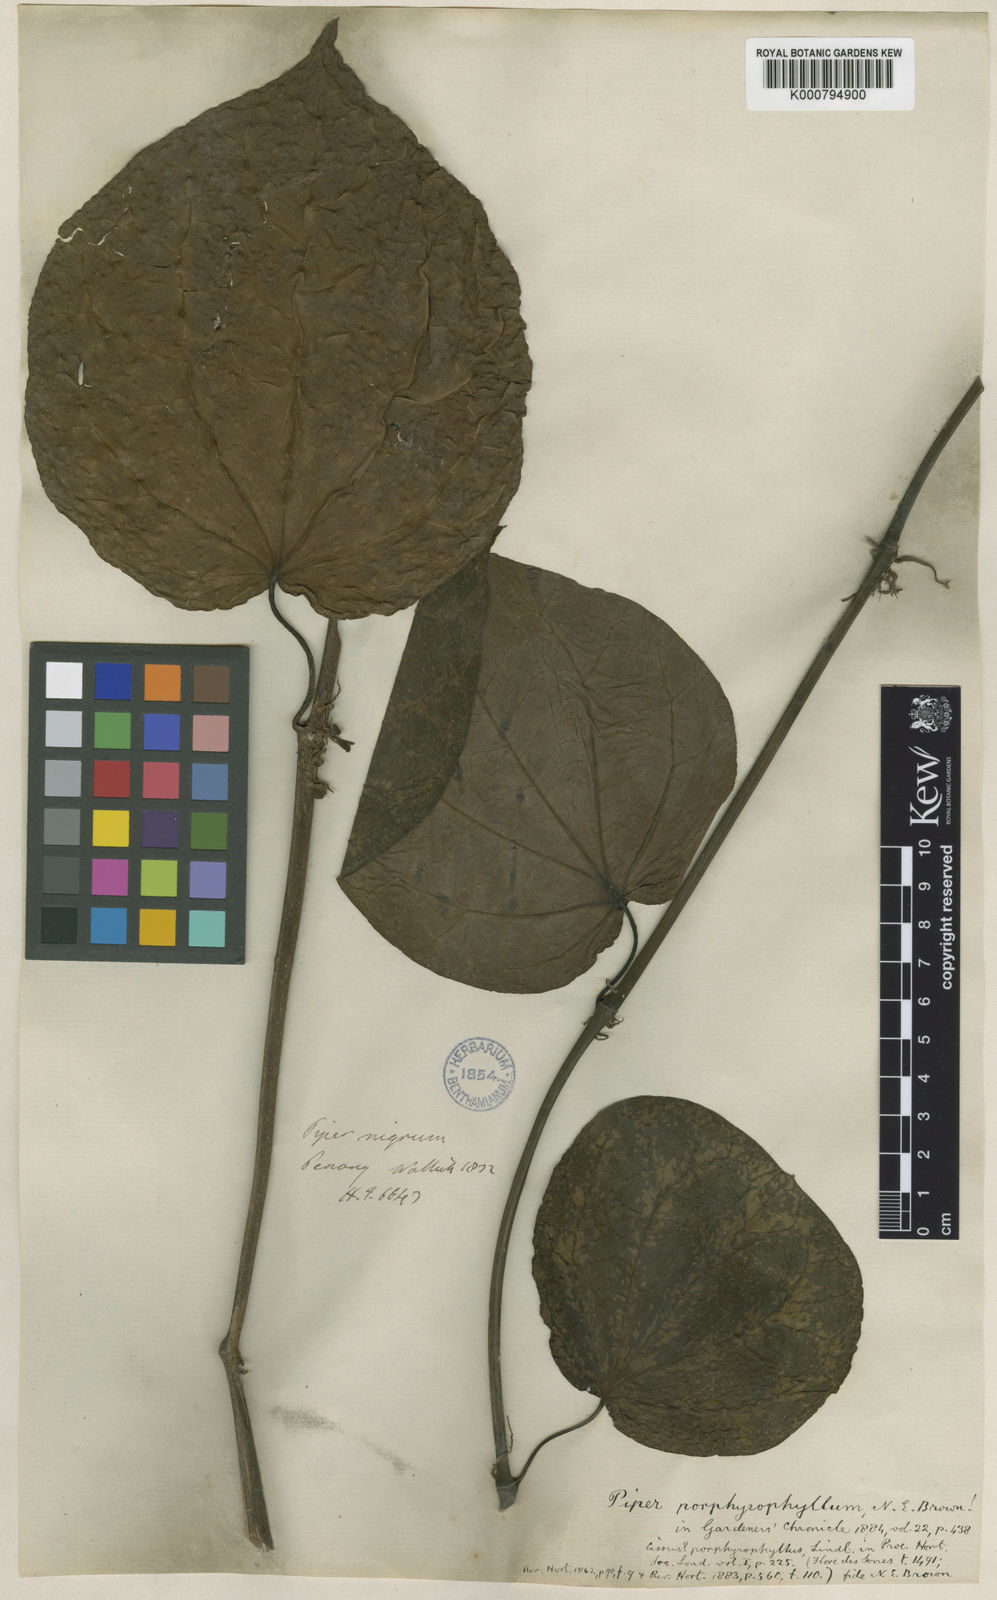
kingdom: Plantae
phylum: Tracheophyta
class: Magnoliopsida
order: Piperales
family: Piperaceae
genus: Piper
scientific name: Piper porphyrophyllum
